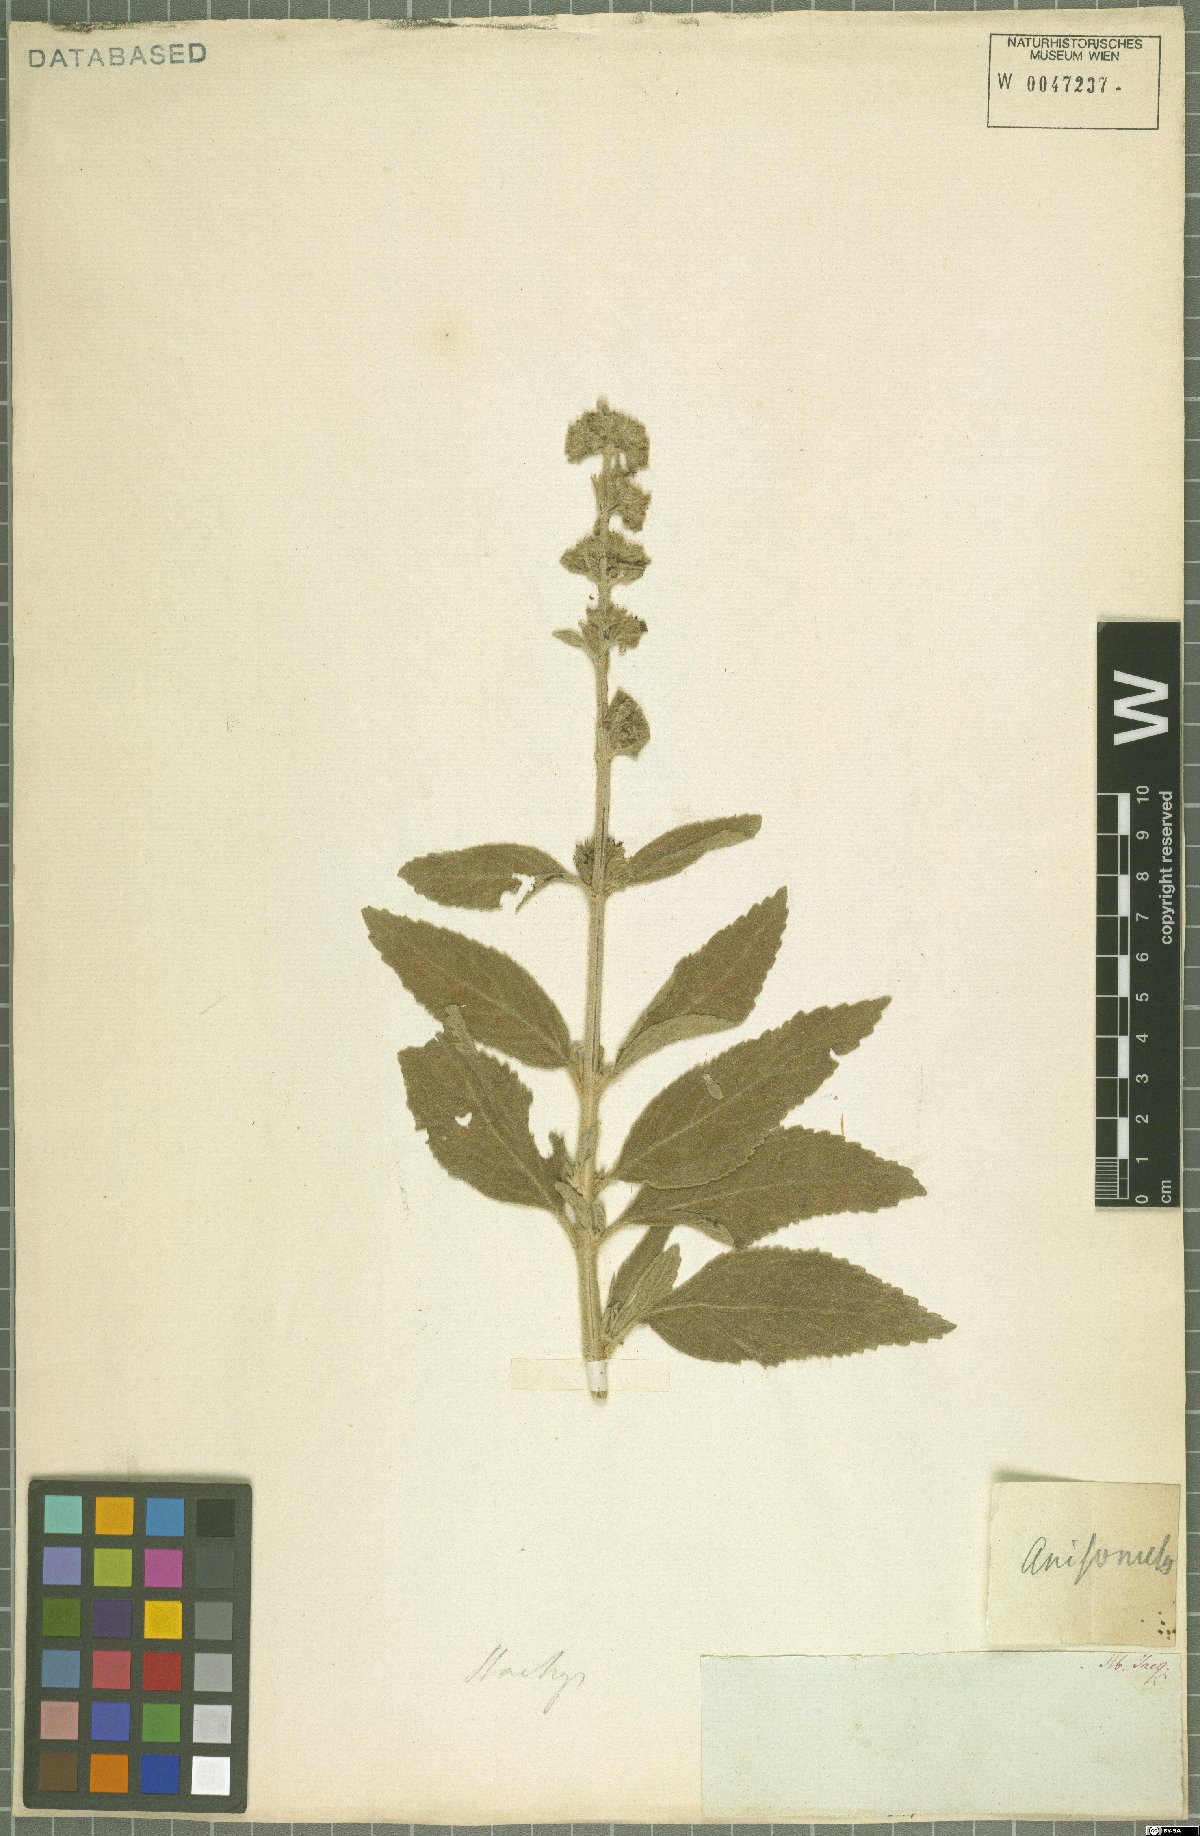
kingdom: Plantae
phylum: Tracheophyta
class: Magnoliopsida
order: Lamiales
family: Lamiaceae
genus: Anisomeles
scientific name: Anisomeles
